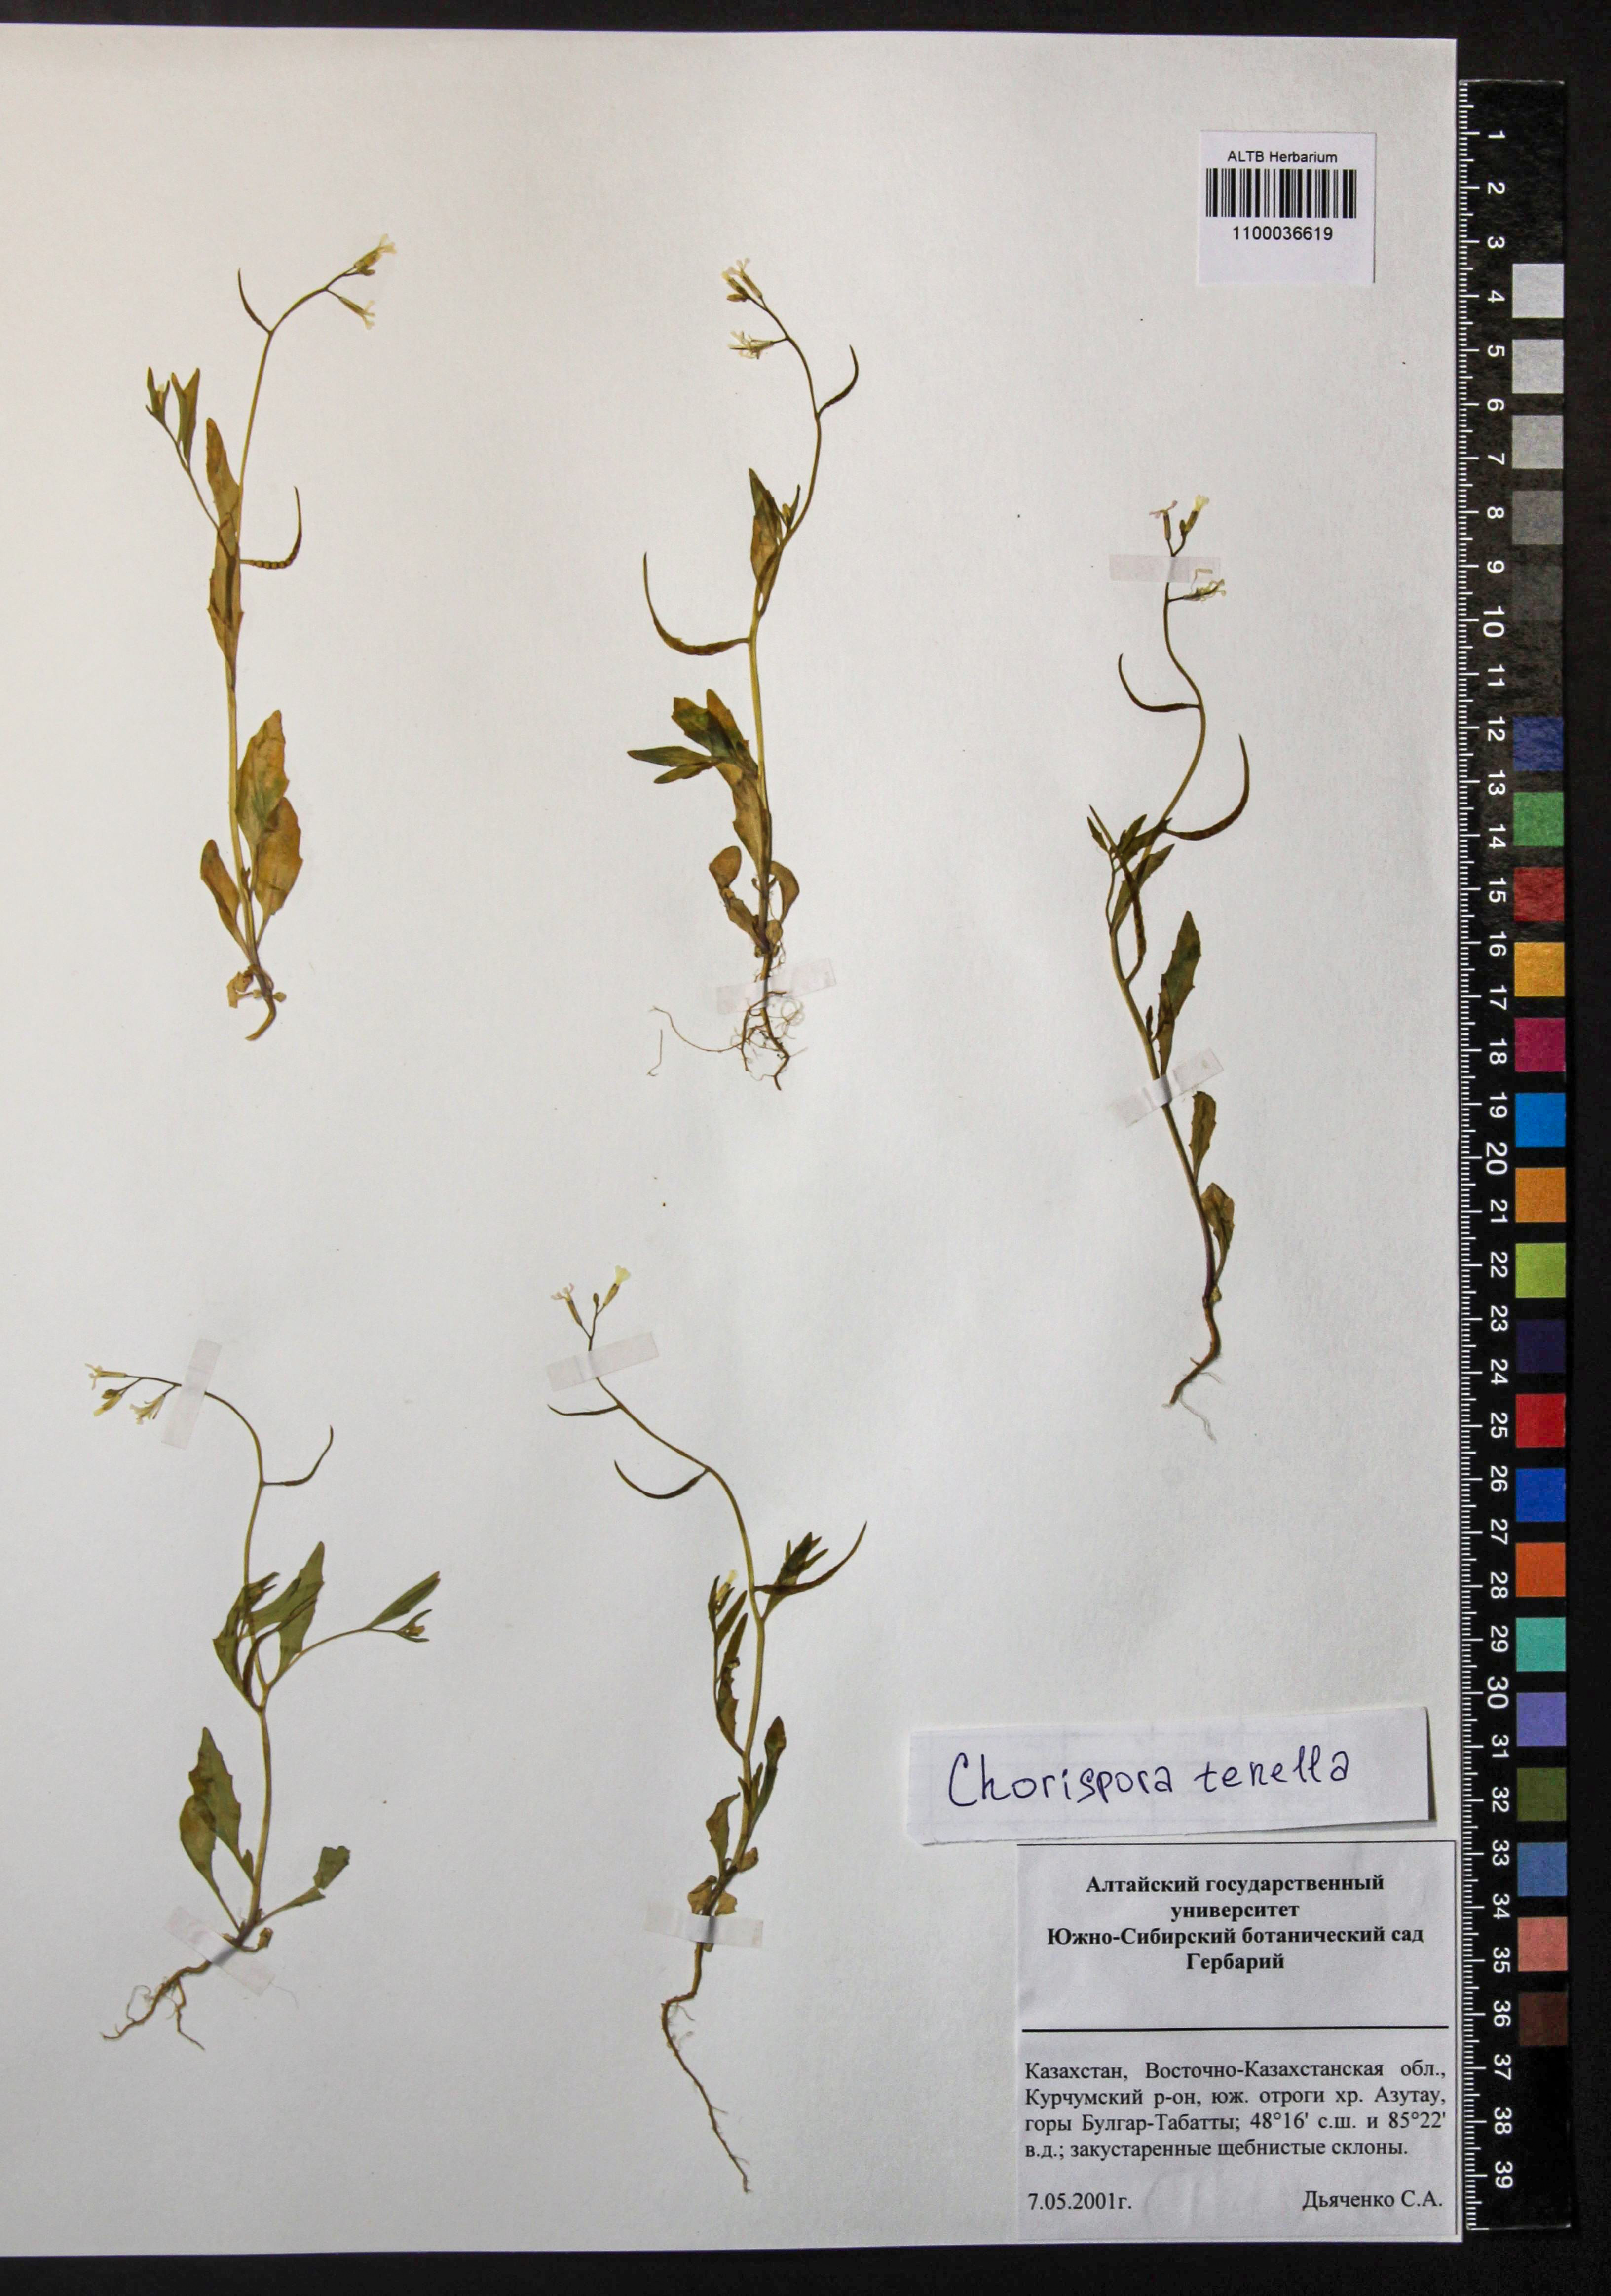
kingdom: Plantae
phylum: Tracheophyta
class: Magnoliopsida
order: Brassicales
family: Brassicaceae
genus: Chorispora
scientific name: Chorispora tenella
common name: Crossflower
